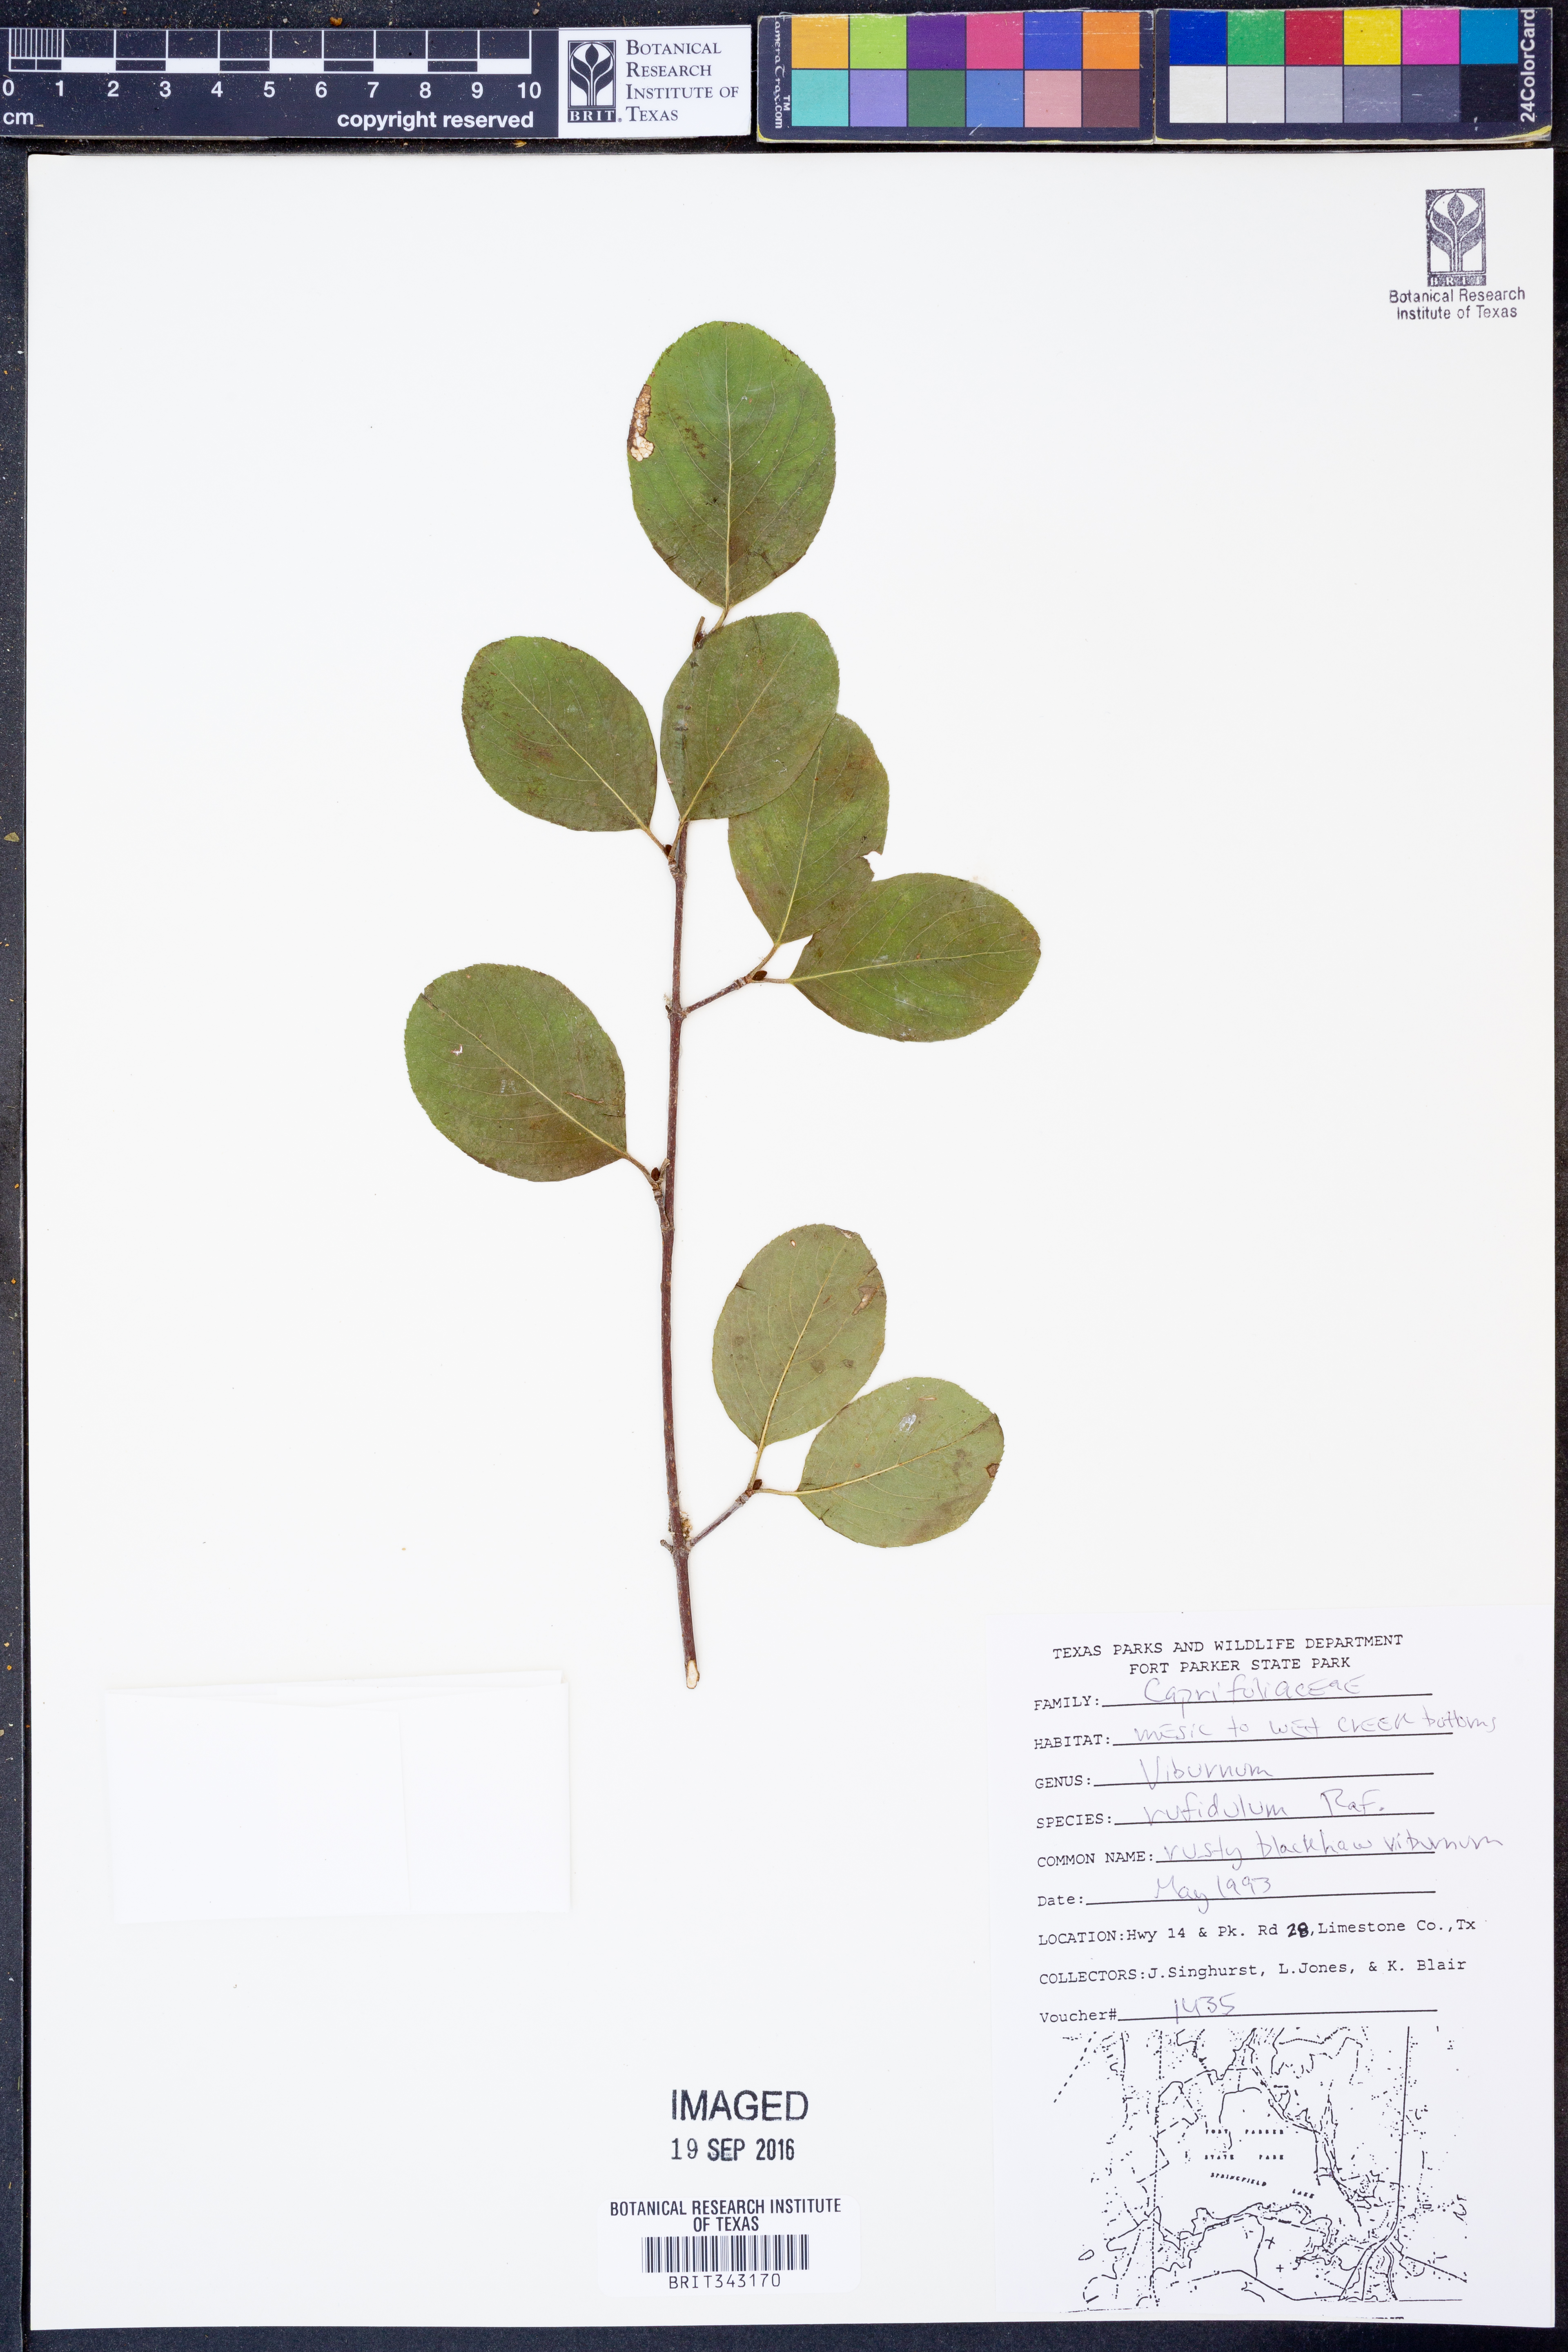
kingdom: Plantae
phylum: Tracheophyta
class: Magnoliopsida
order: Dipsacales
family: Viburnaceae
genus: Viburnum
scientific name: Viburnum rufidulum
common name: Blue haw
